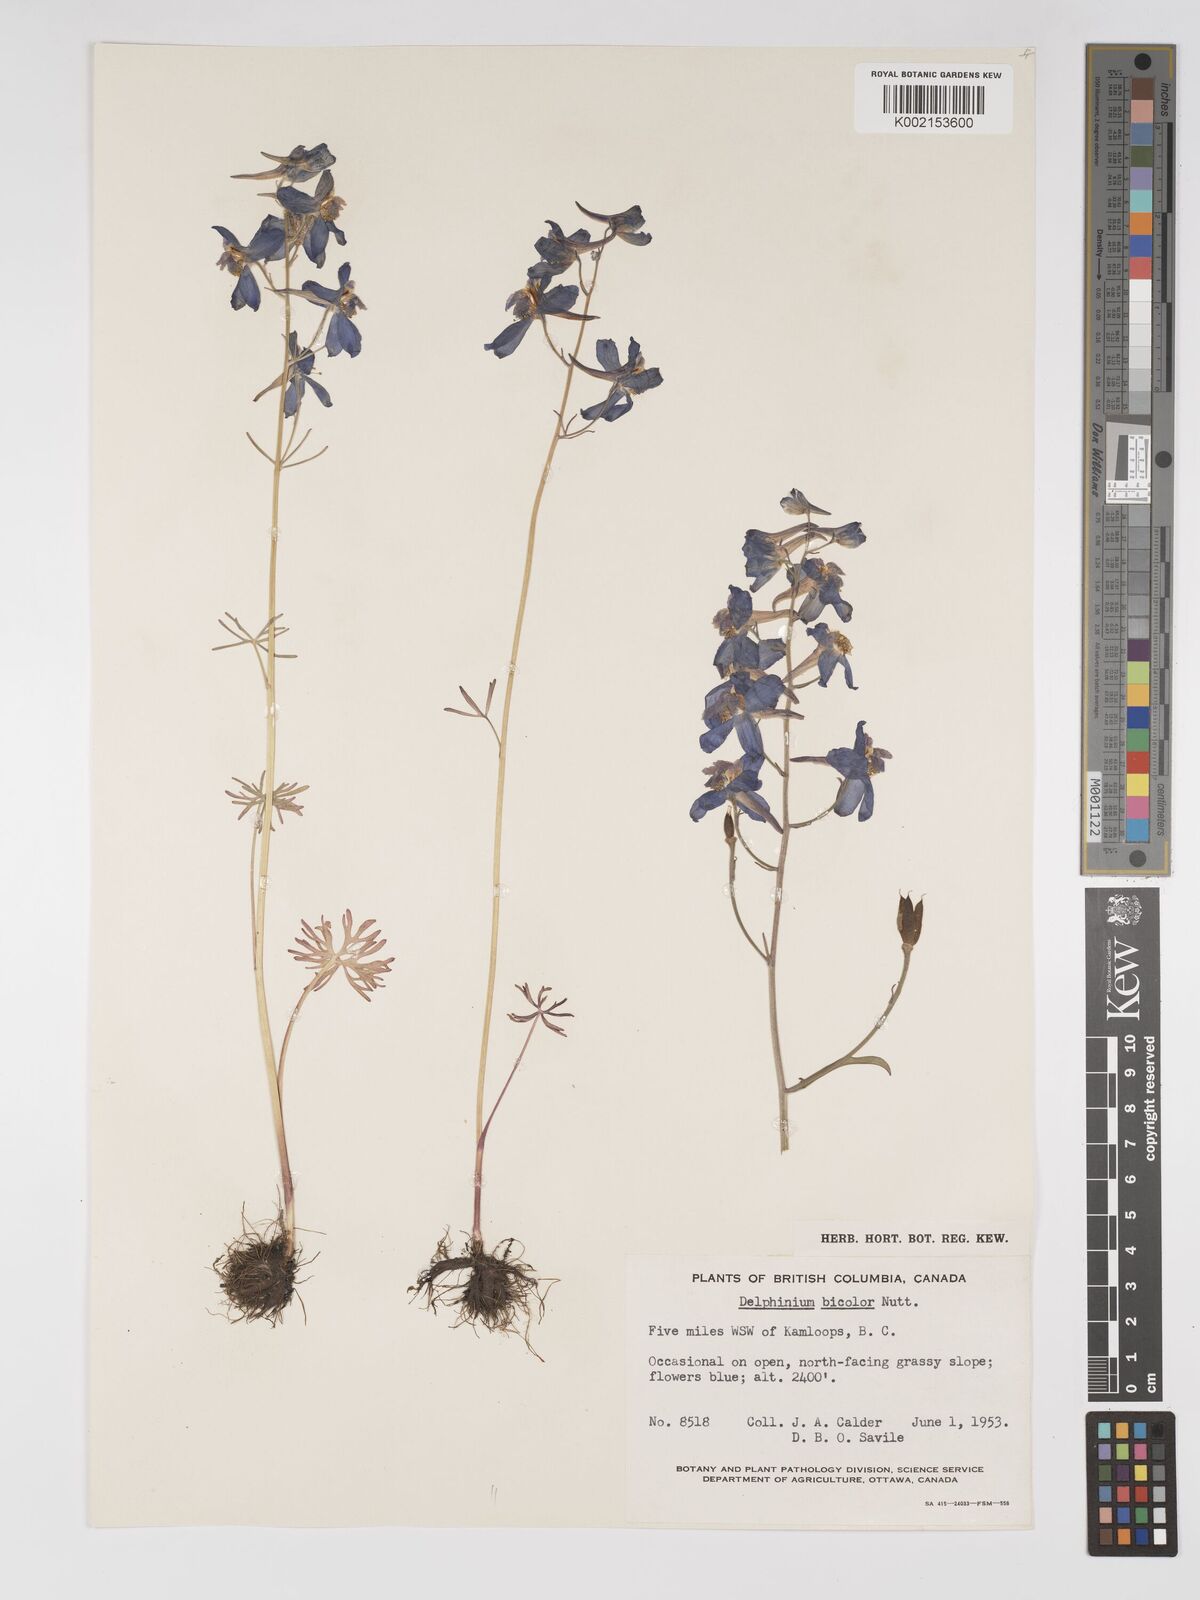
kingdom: Plantae
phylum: Tracheophyta
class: Magnoliopsida
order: Ranunculales
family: Ranunculaceae
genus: Delphinium
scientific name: Delphinium bicolor
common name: Low larkspur
